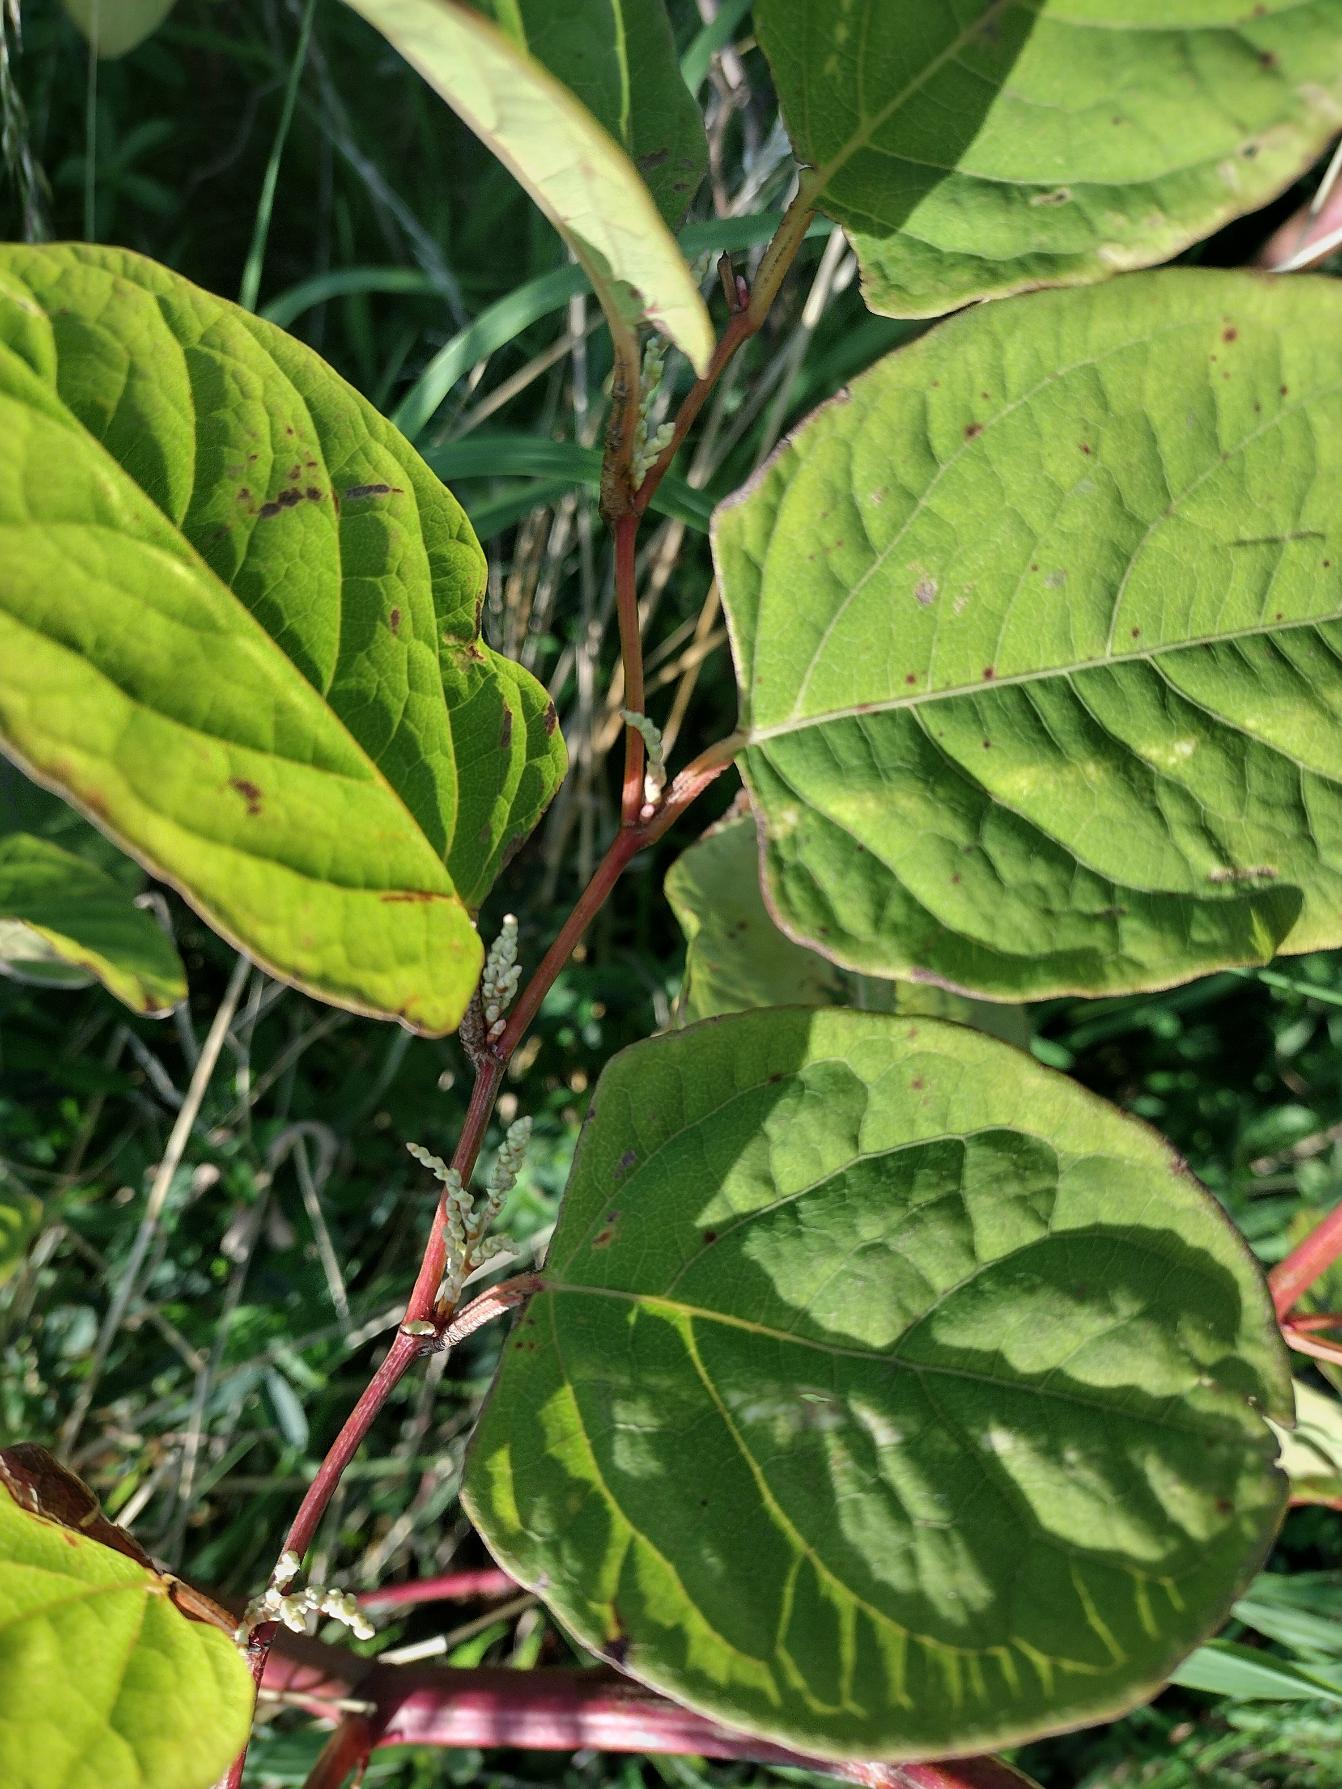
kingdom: Plantae
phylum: Tracheophyta
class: Magnoliopsida
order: Caryophyllales
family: Polygonaceae
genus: Reynoutria
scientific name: Reynoutria japonica
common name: Japan-pileurt
